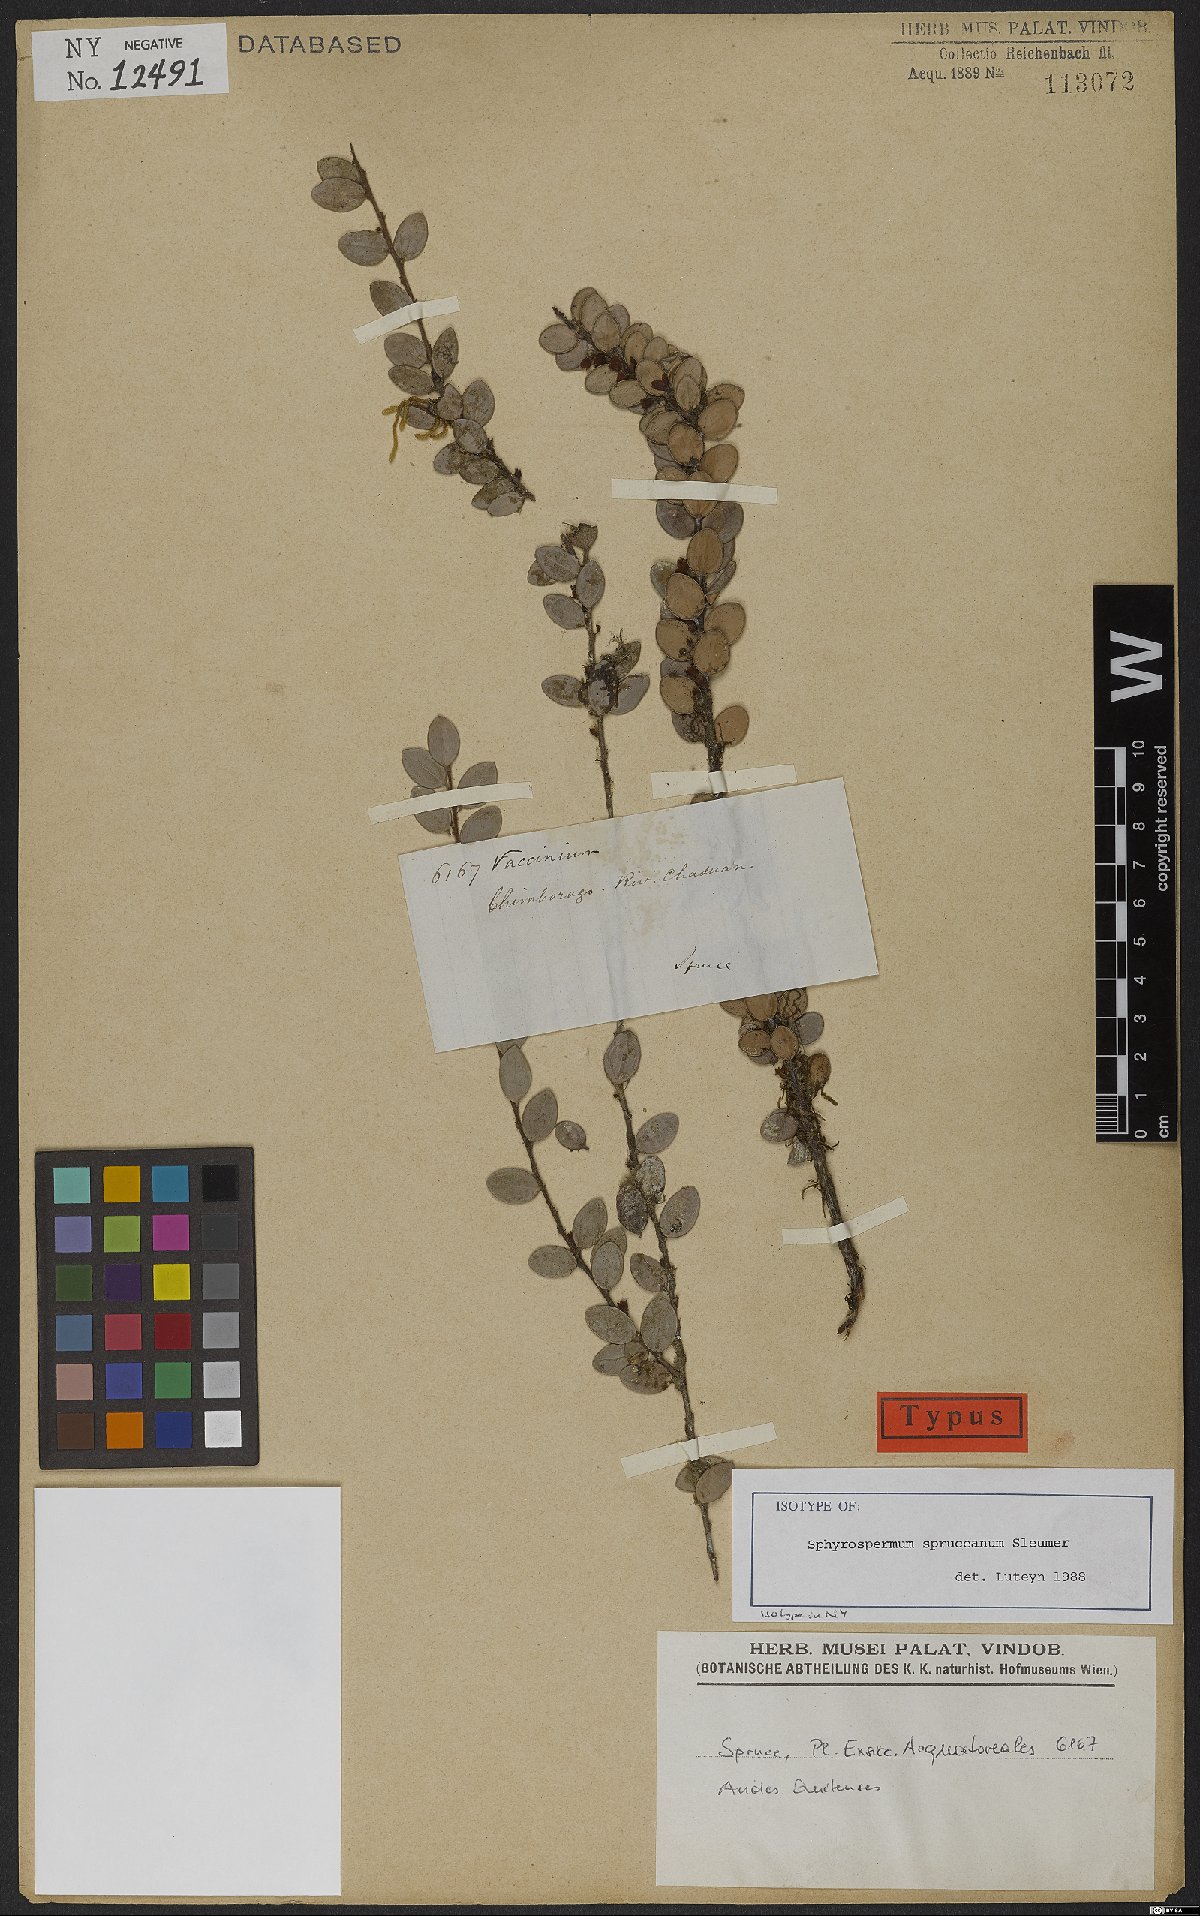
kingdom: Plantae
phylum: Tracheophyta
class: Magnoliopsida
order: Ericales
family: Ericaceae
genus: Sphyrospermum
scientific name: Sphyrospermum spruceanum
